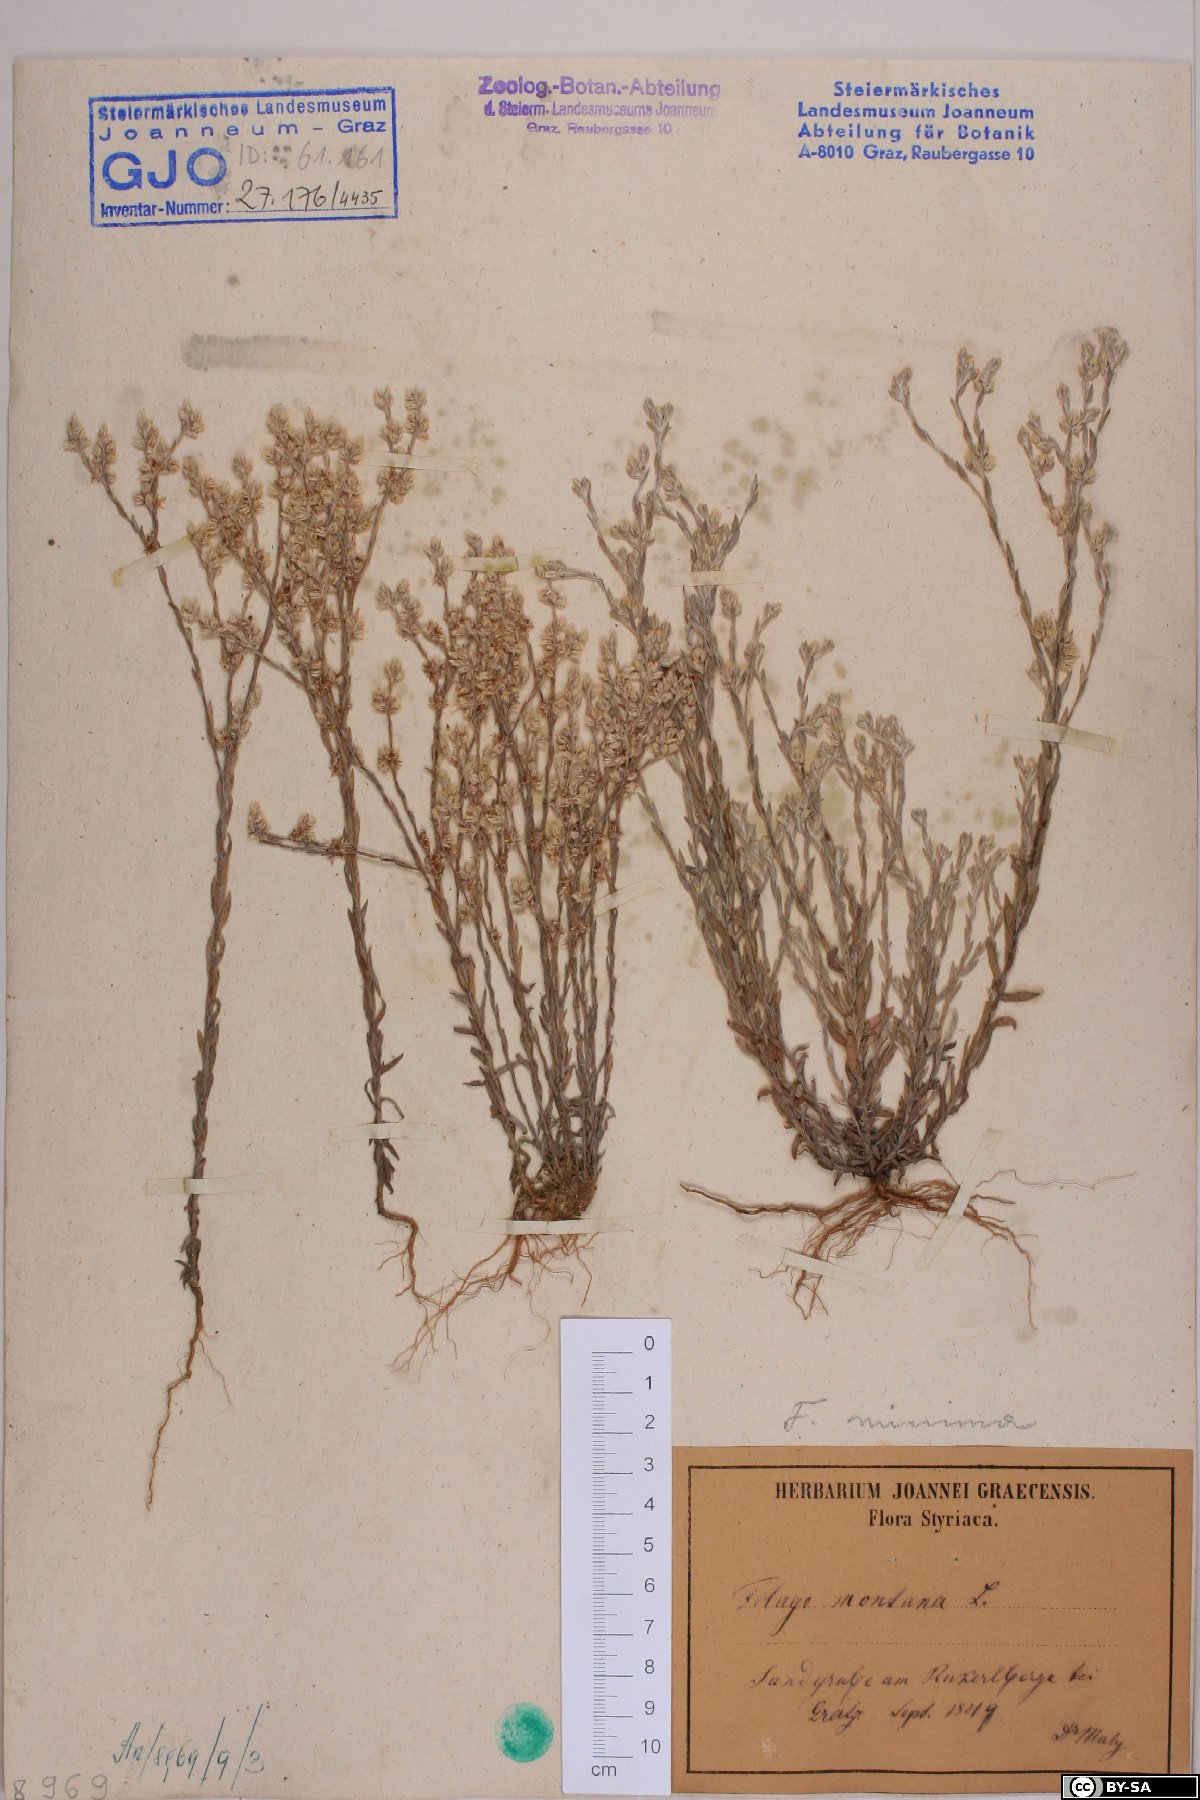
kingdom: Plantae
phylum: Tracheophyta
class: Magnoliopsida
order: Asterales
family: Asteraceae
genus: Logfia
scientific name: Logfia minima
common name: Little cottonrose
